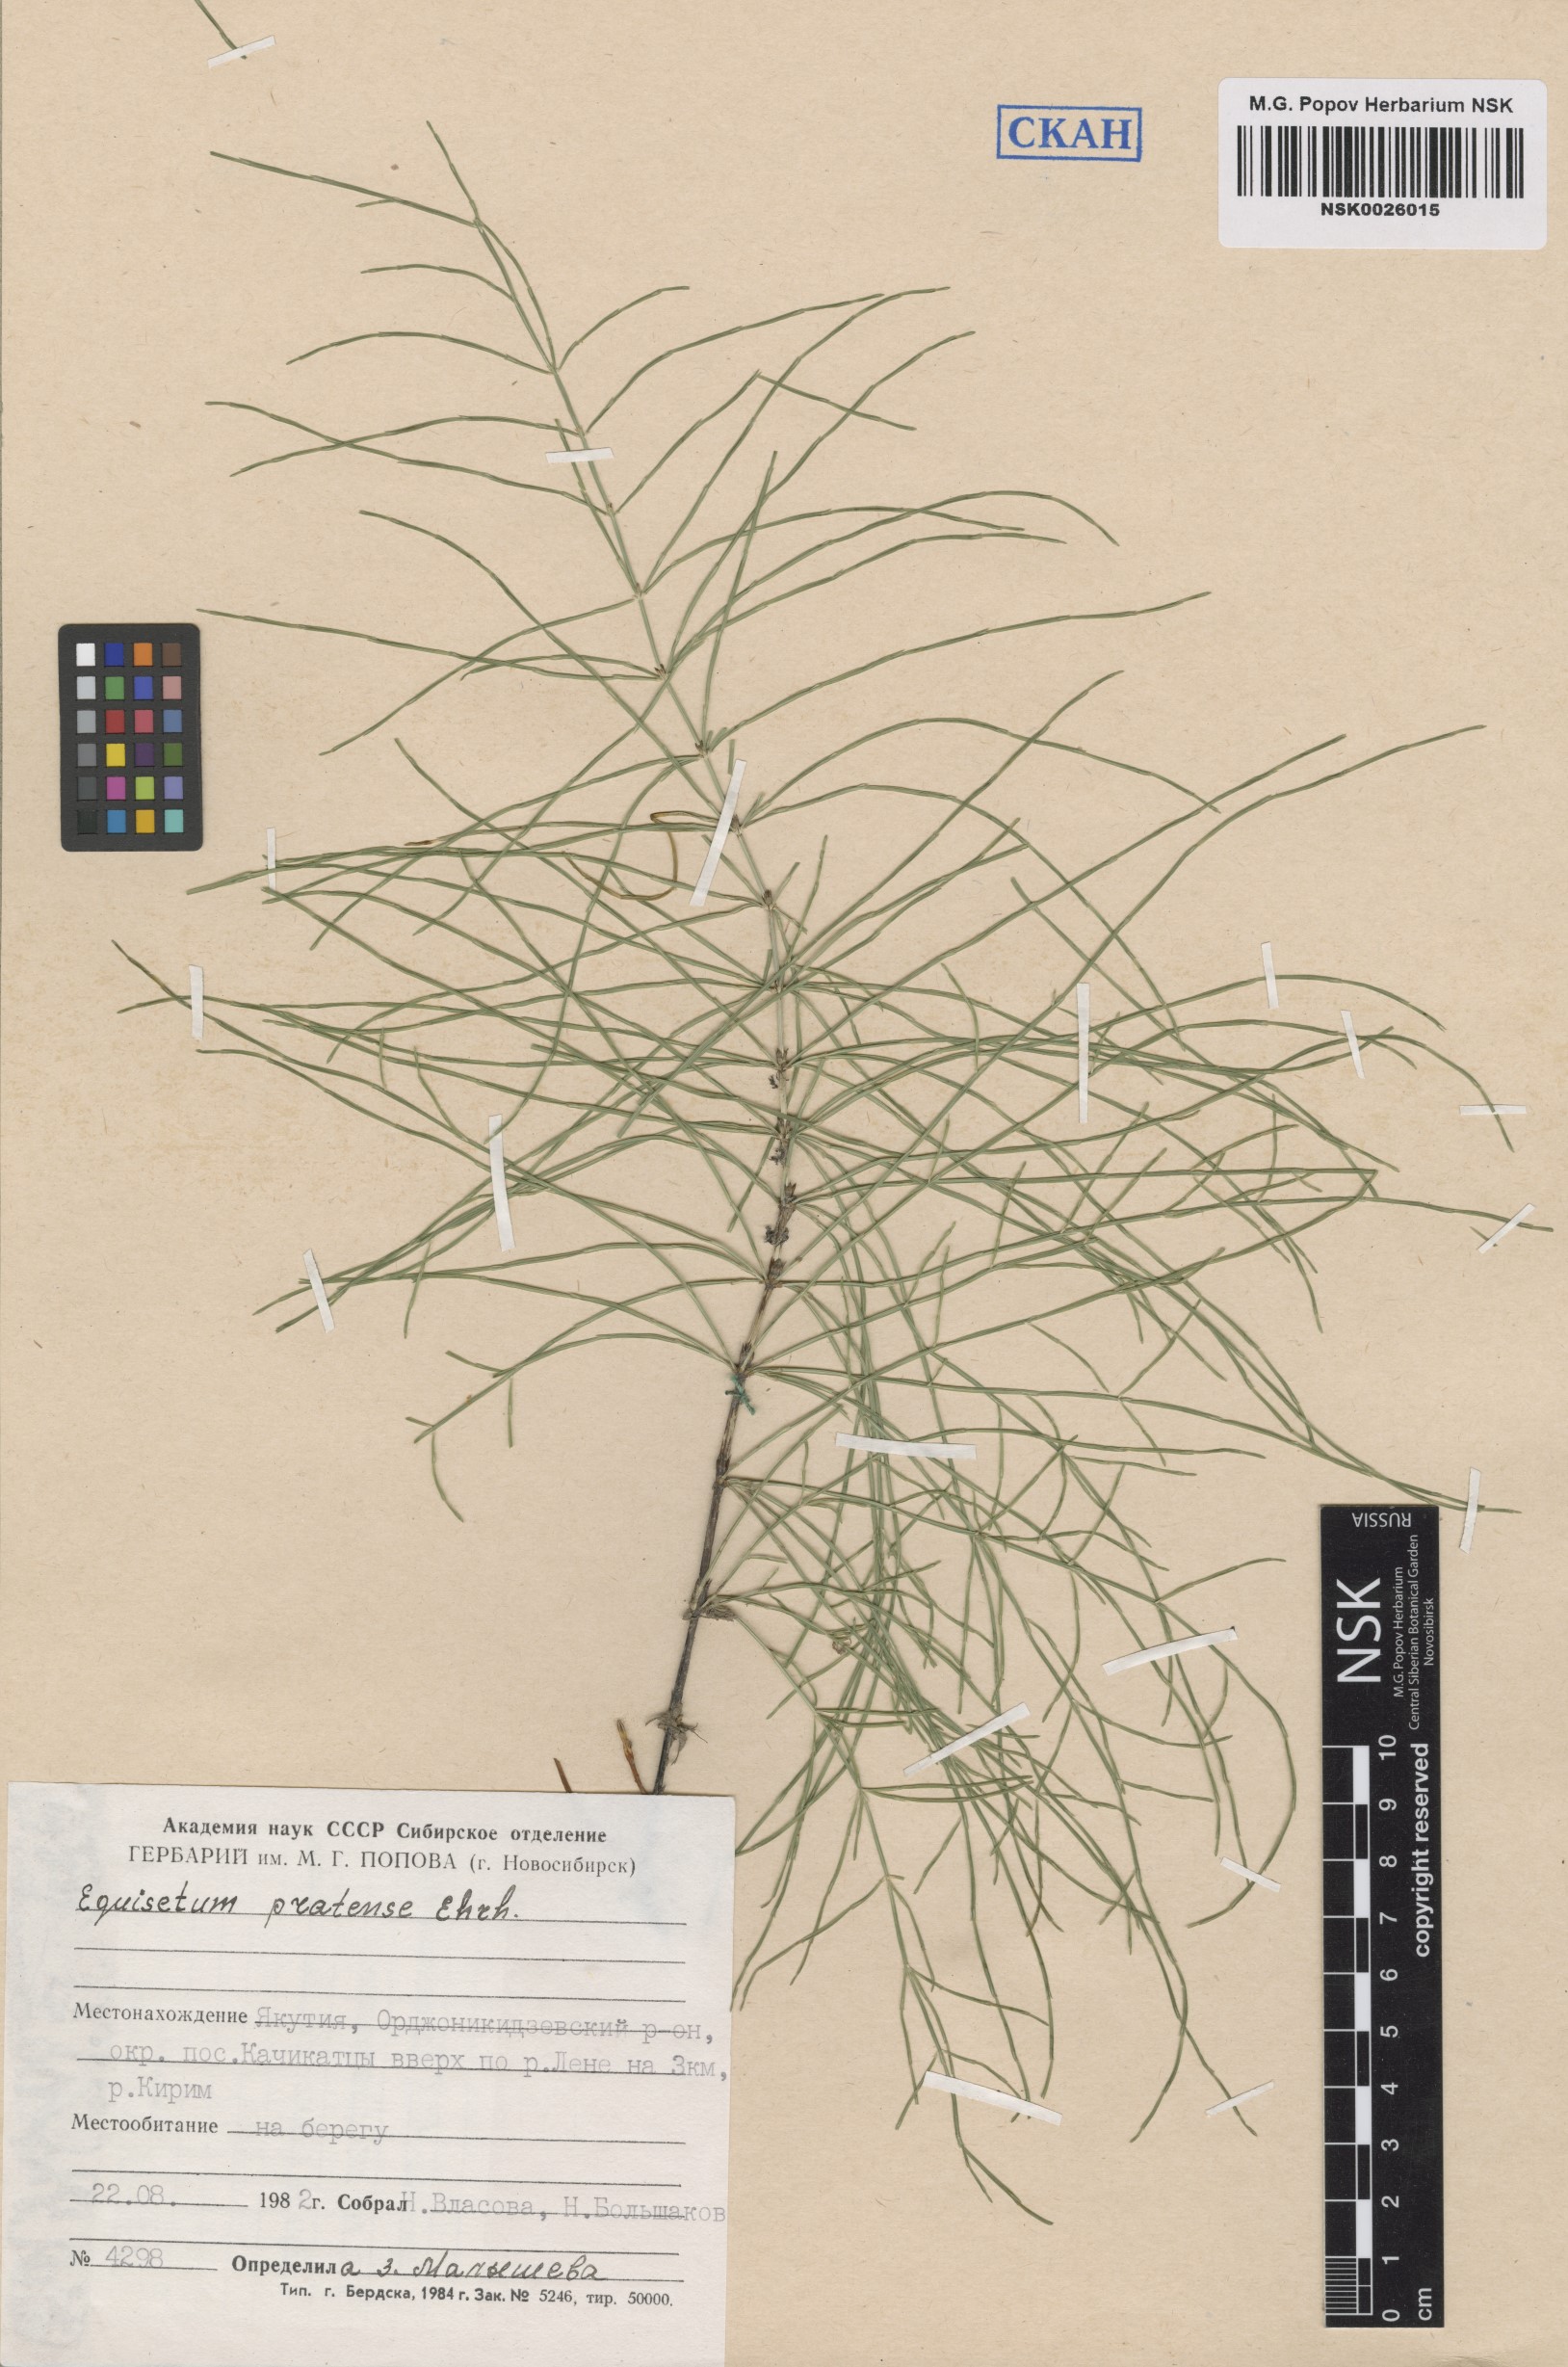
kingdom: Plantae
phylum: Tracheophyta
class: Polypodiopsida
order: Equisetales
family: Equisetaceae
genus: Equisetum
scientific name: Equisetum pratense
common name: Meadow horsetail
